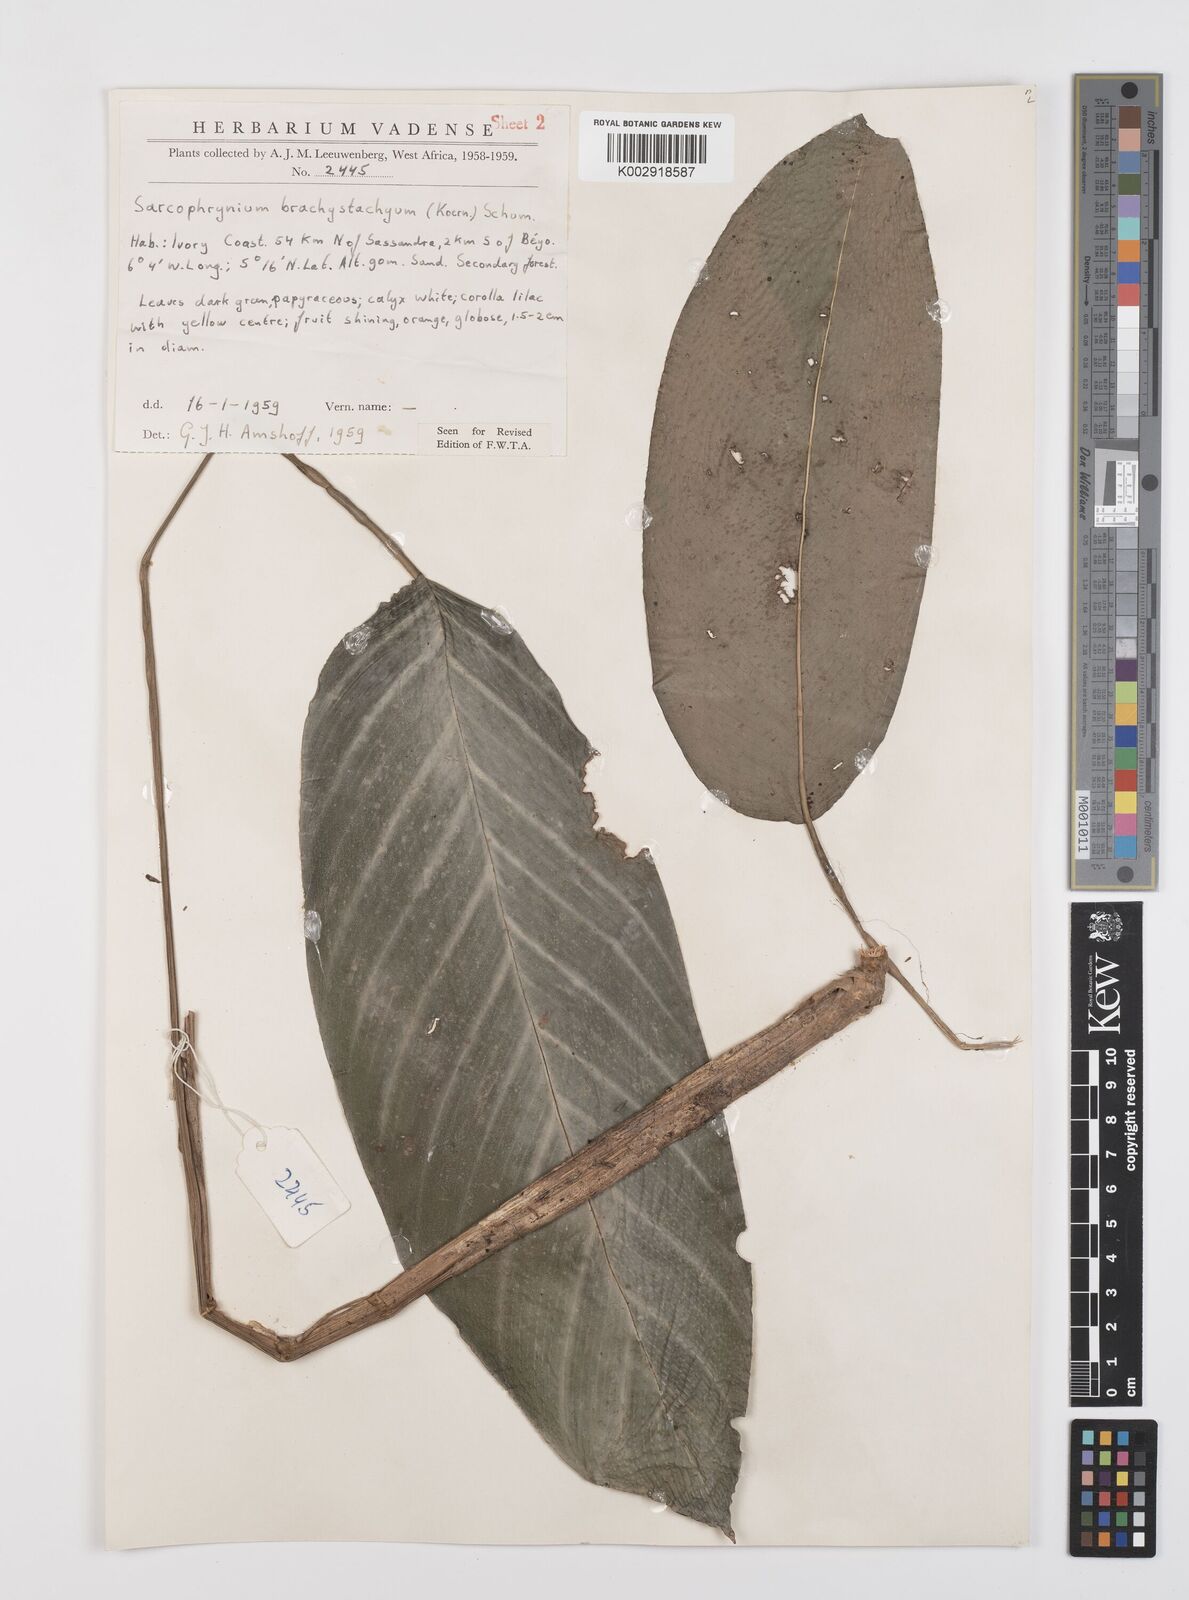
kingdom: Plantae
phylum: Tracheophyta
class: Liliopsida
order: Zingiberales
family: Marantaceae
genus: Sarcophrynium
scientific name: Sarcophrynium brachystachyum
